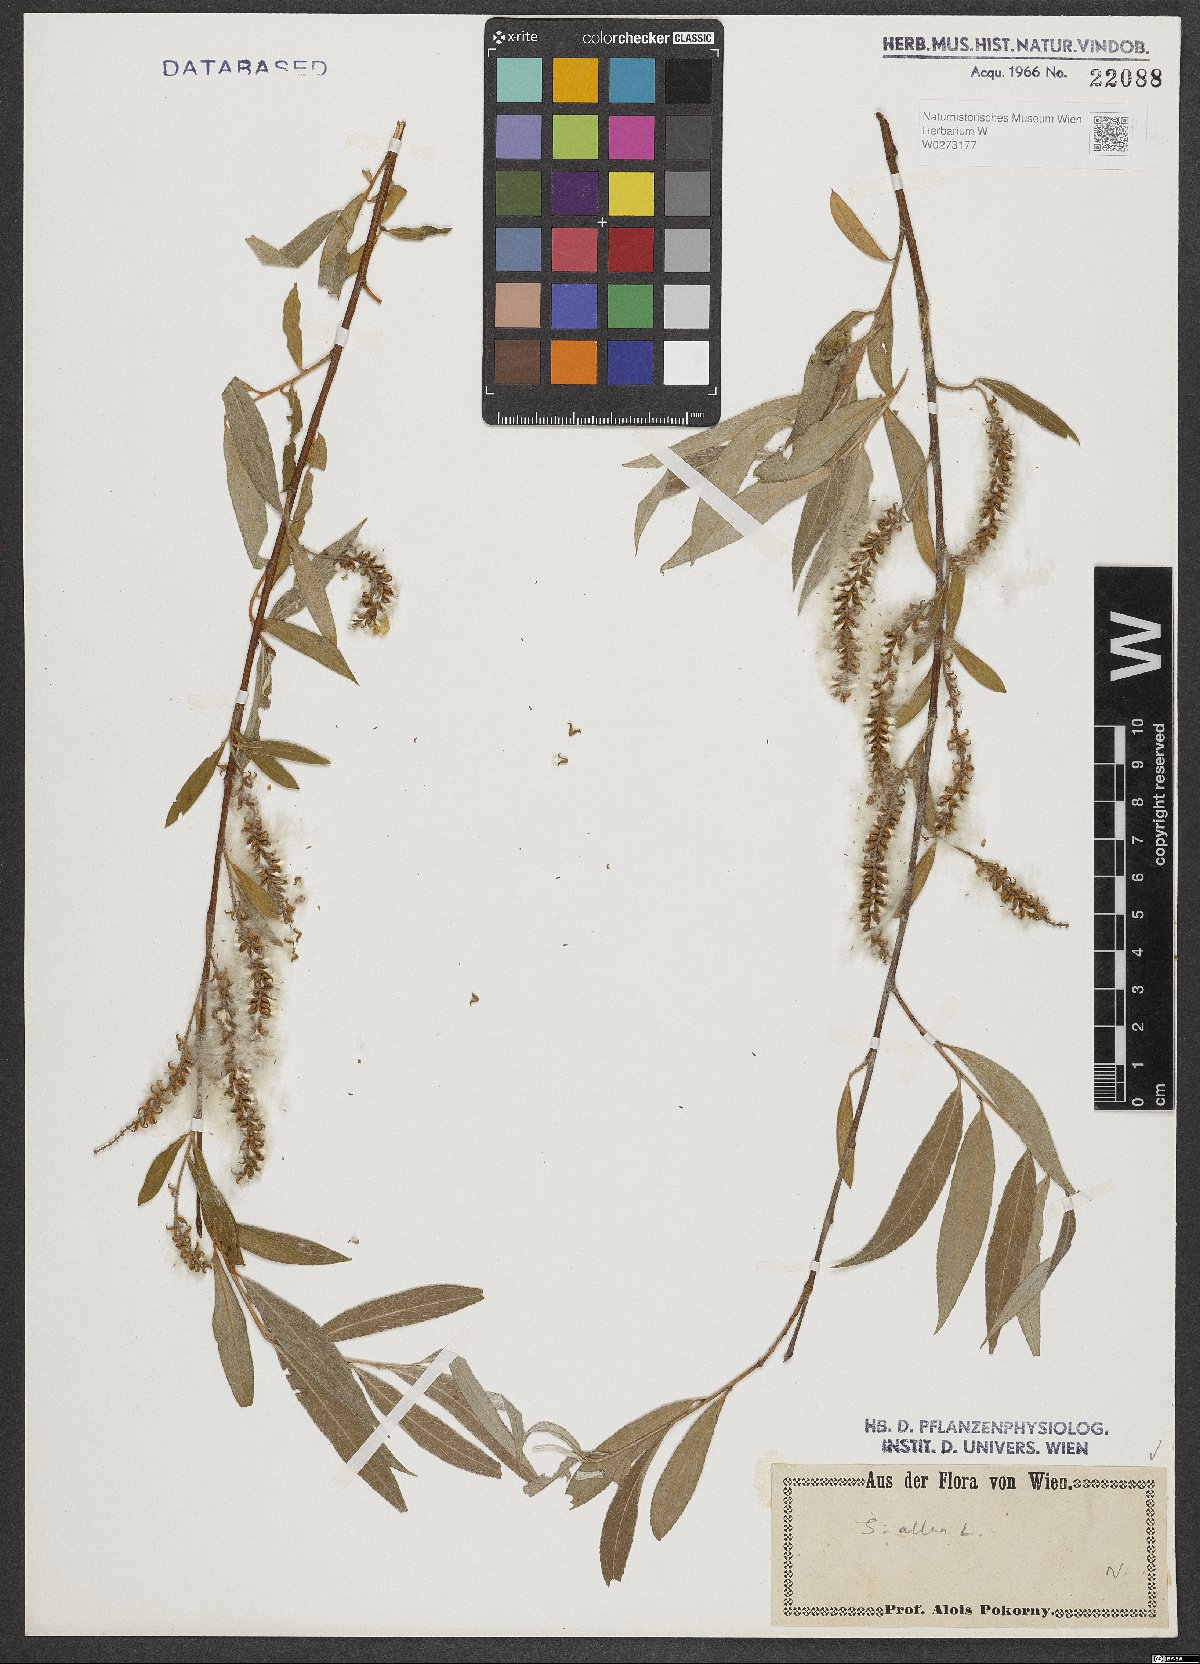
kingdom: Plantae
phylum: Tracheophyta
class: Magnoliopsida
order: Malpighiales
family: Salicaceae
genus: Salix
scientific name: Salix alba
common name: White willow
